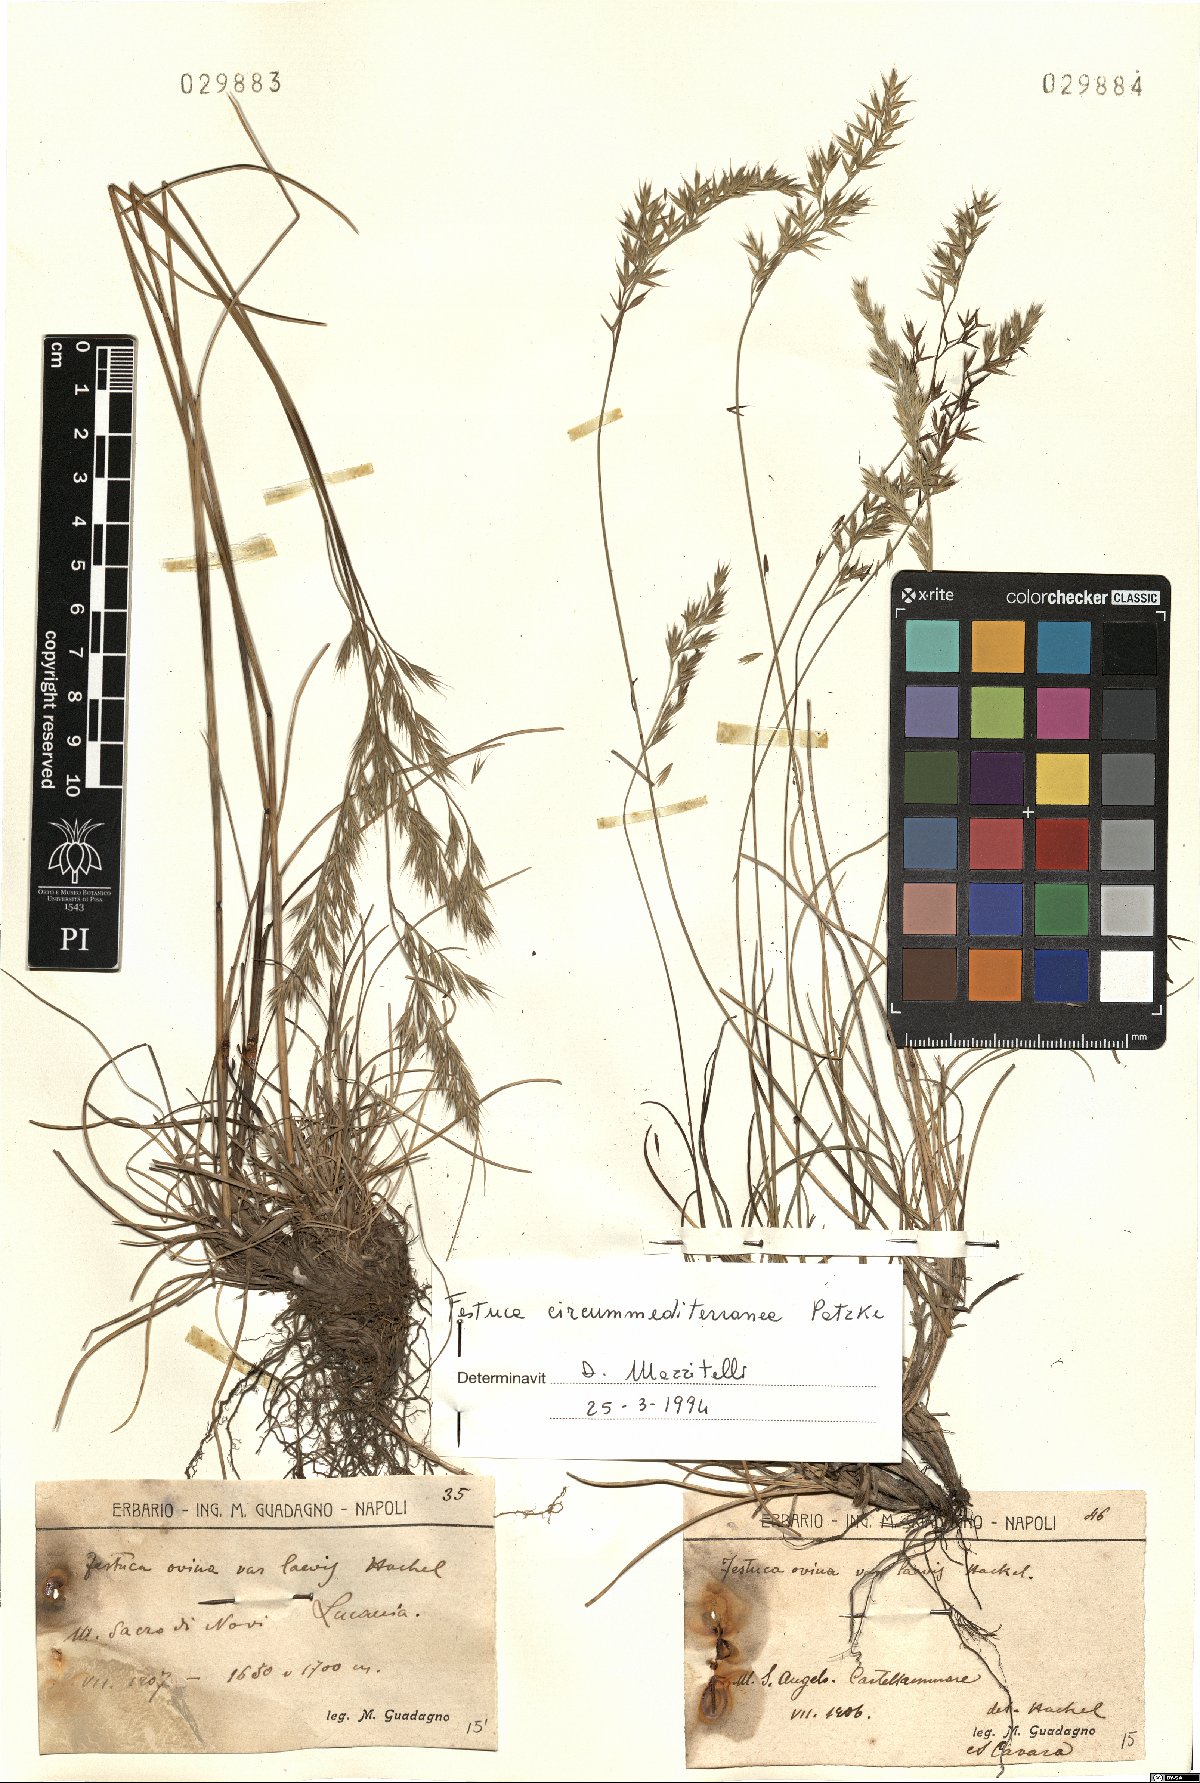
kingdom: Plantae
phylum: Tracheophyta
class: Liliopsida
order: Poales
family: Poaceae
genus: Festuca
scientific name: Festuca circummediterranea
